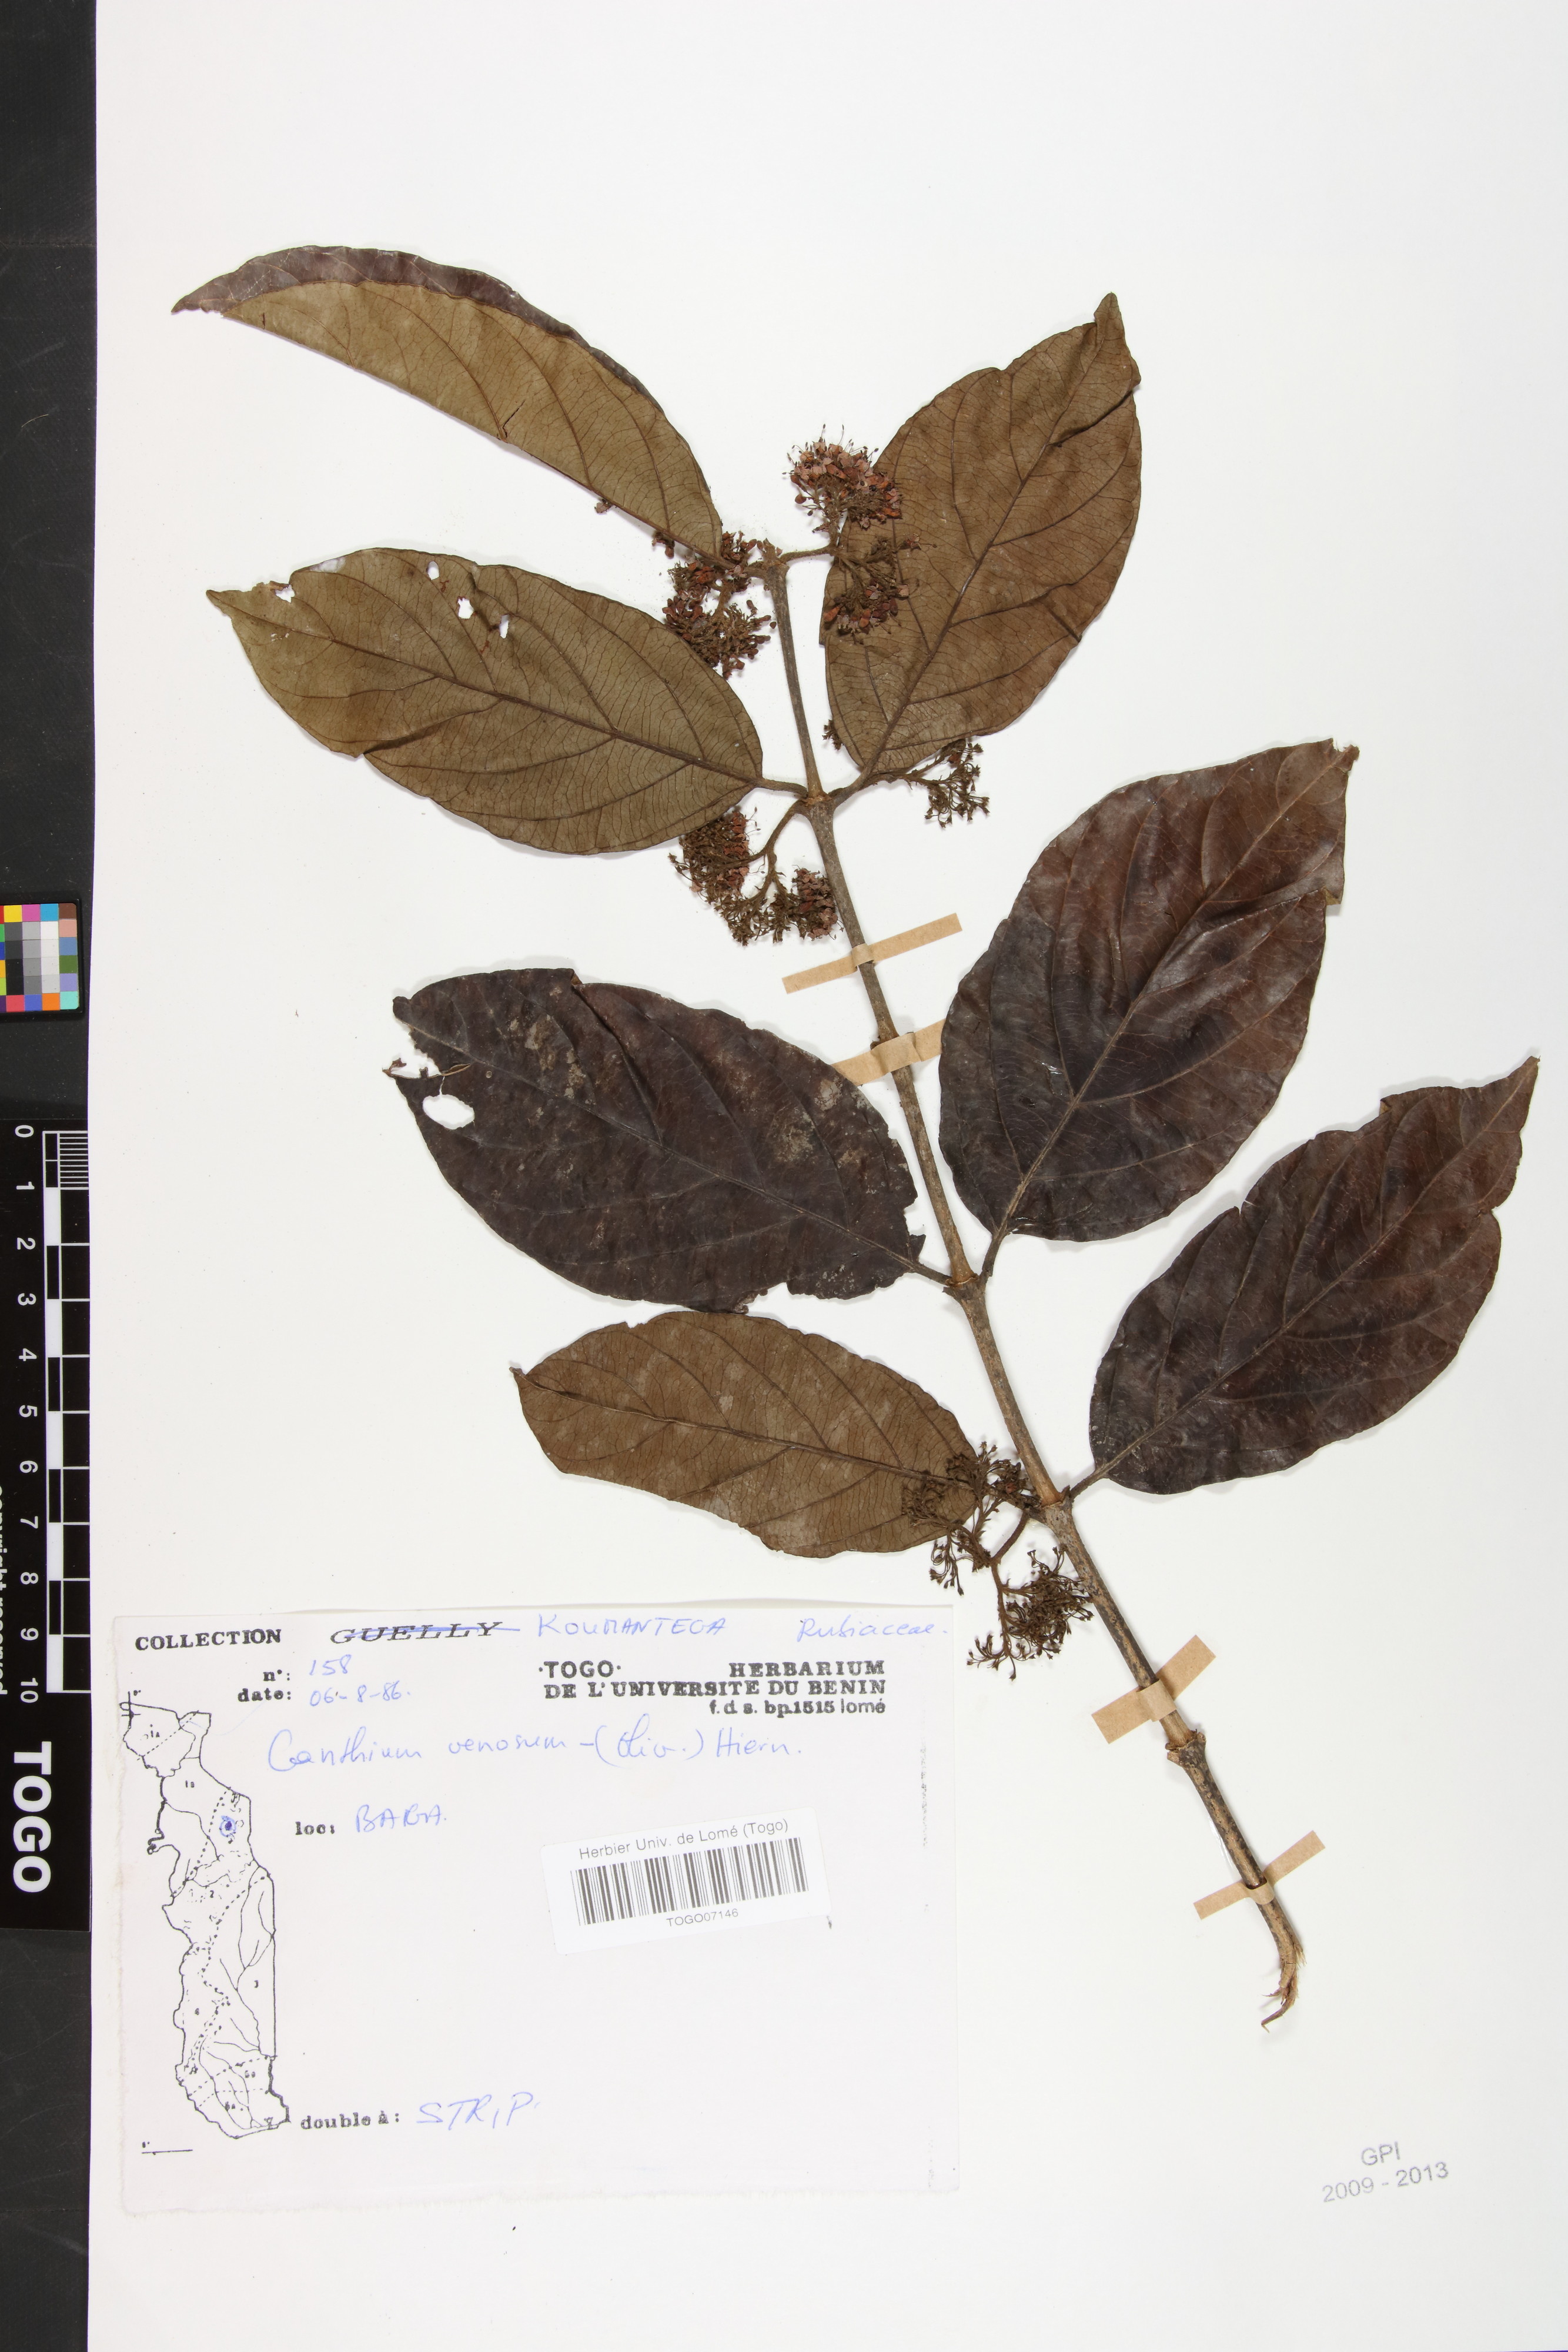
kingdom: Plantae
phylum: Tracheophyta
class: Magnoliopsida
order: Gentianales
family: Rubiaceae
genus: Keetia
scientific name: Keetia venosa
